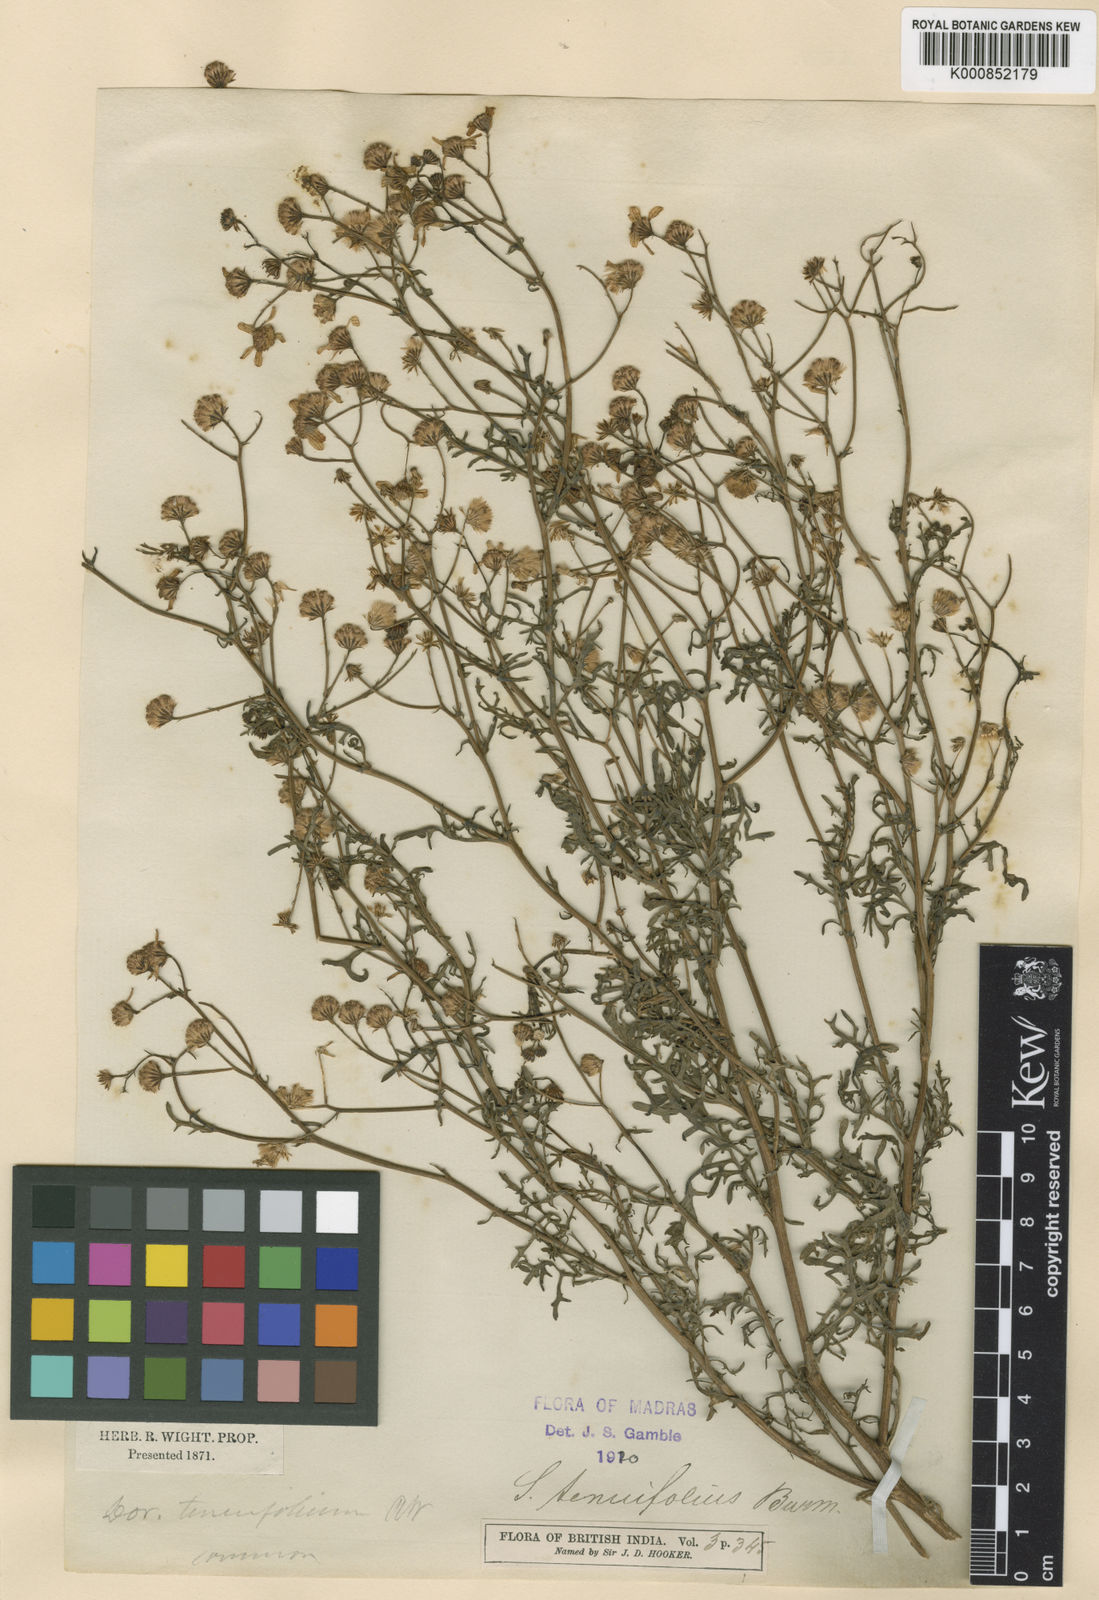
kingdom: Plantae
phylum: Tracheophyta
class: Magnoliopsida
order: Asterales
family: Asteraceae
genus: Senecio
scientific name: Senecio tenuifolius
